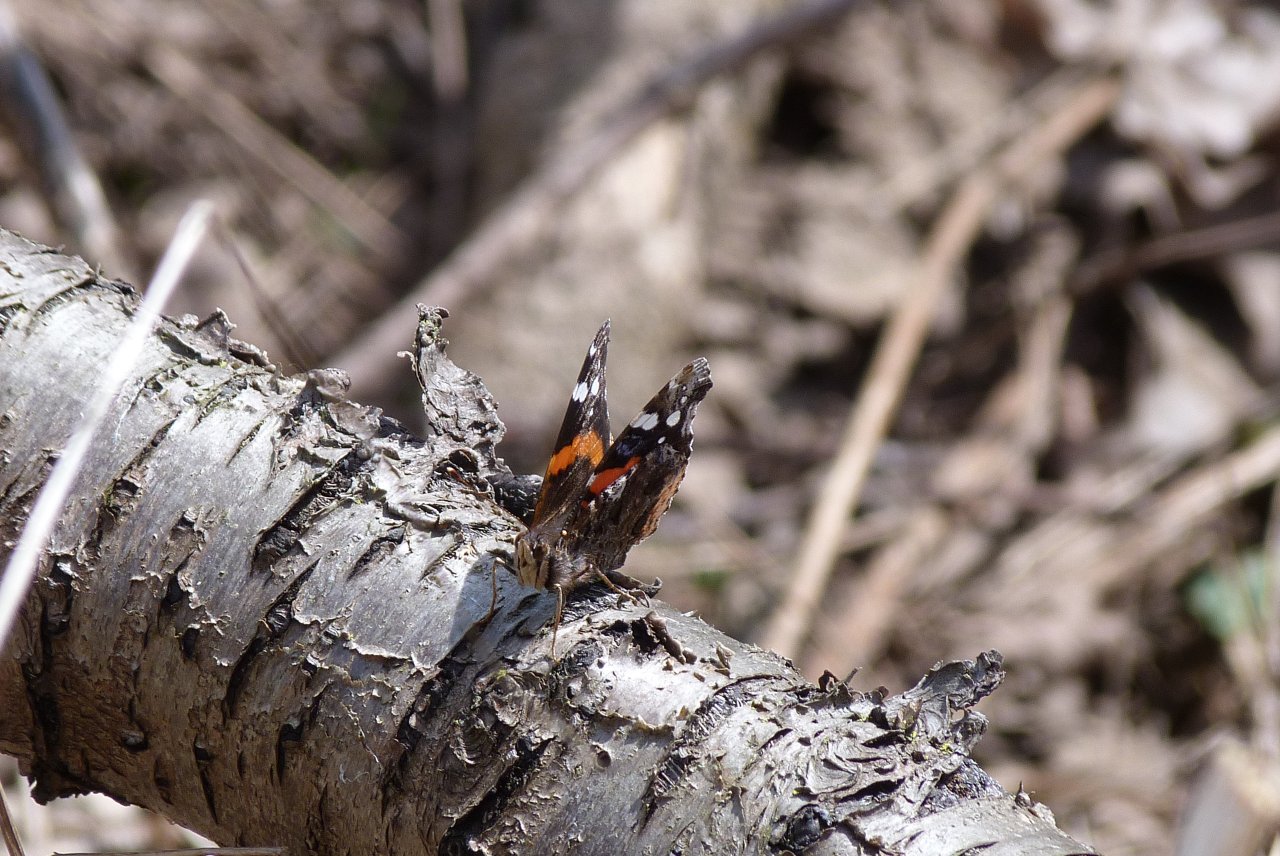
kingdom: Animalia
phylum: Arthropoda
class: Insecta
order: Lepidoptera
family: Nymphalidae
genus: Vanessa
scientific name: Vanessa atalanta
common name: Red Admiral
